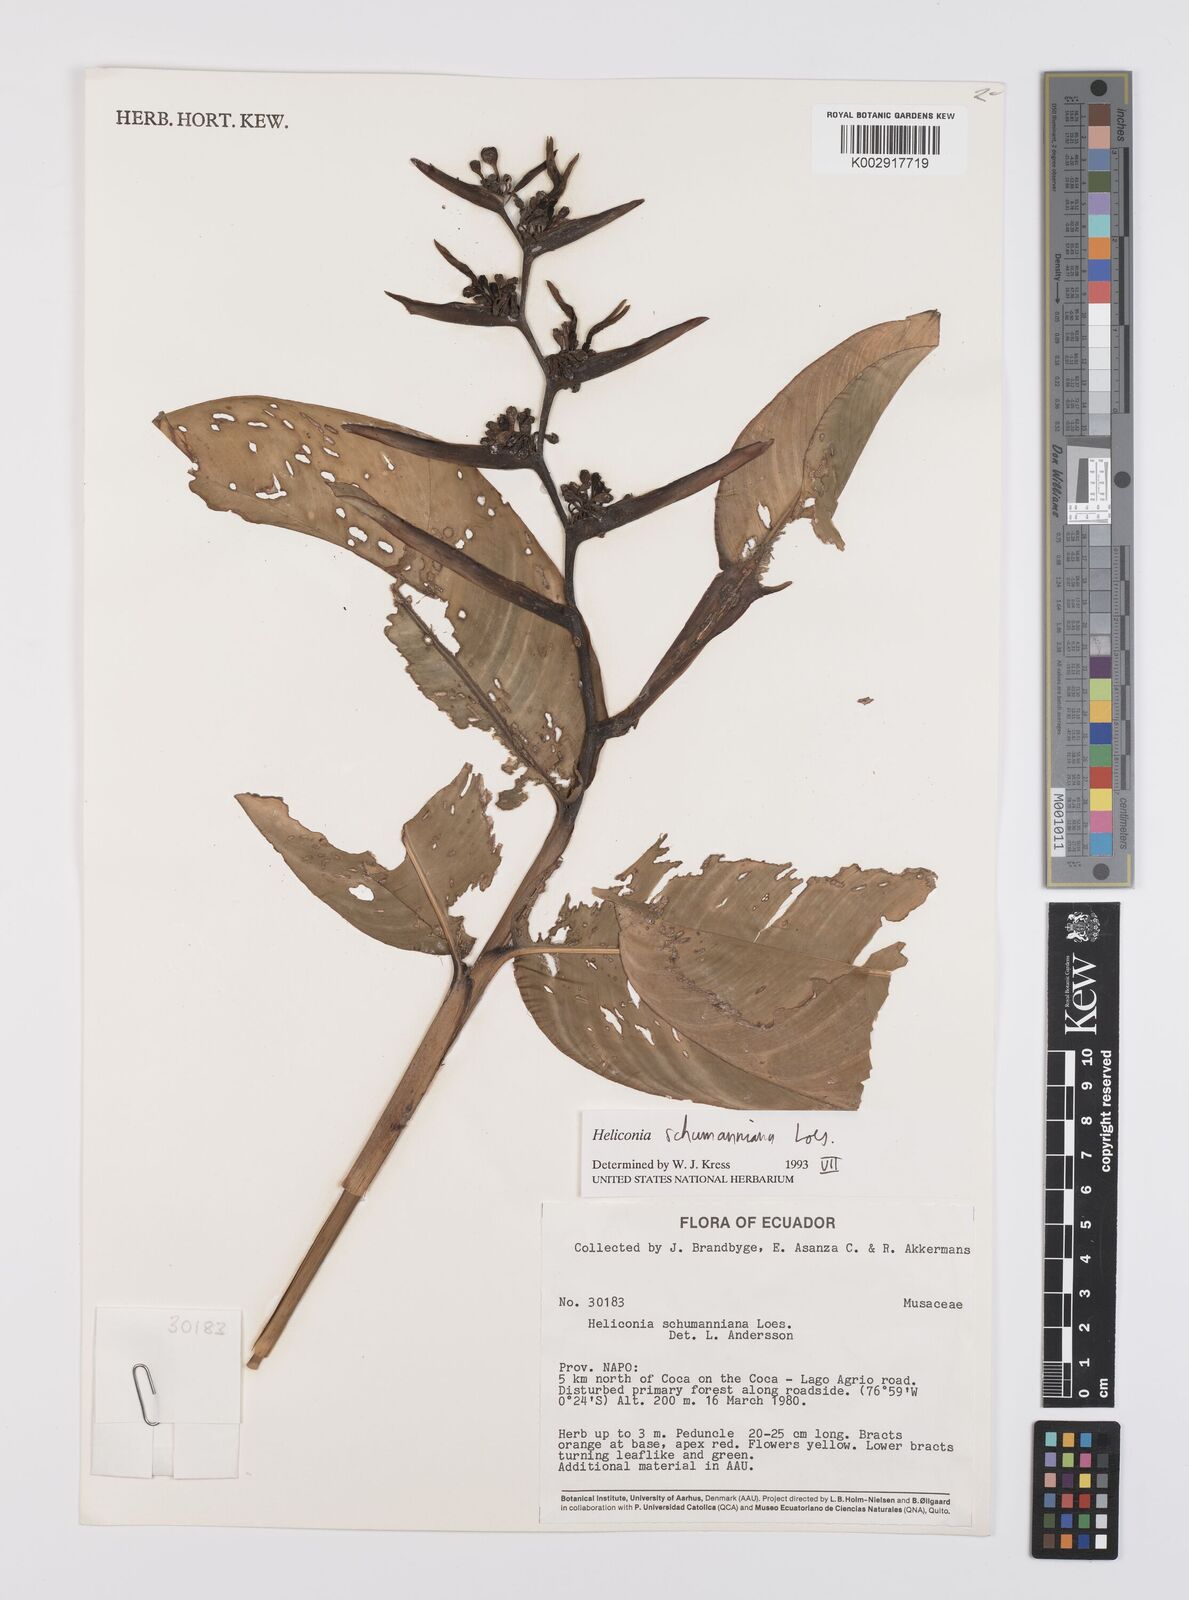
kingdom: Plantae
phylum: Tracheophyta
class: Liliopsida
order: Zingiberales
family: Heliconiaceae
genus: Heliconia
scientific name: Heliconia schumanniana
